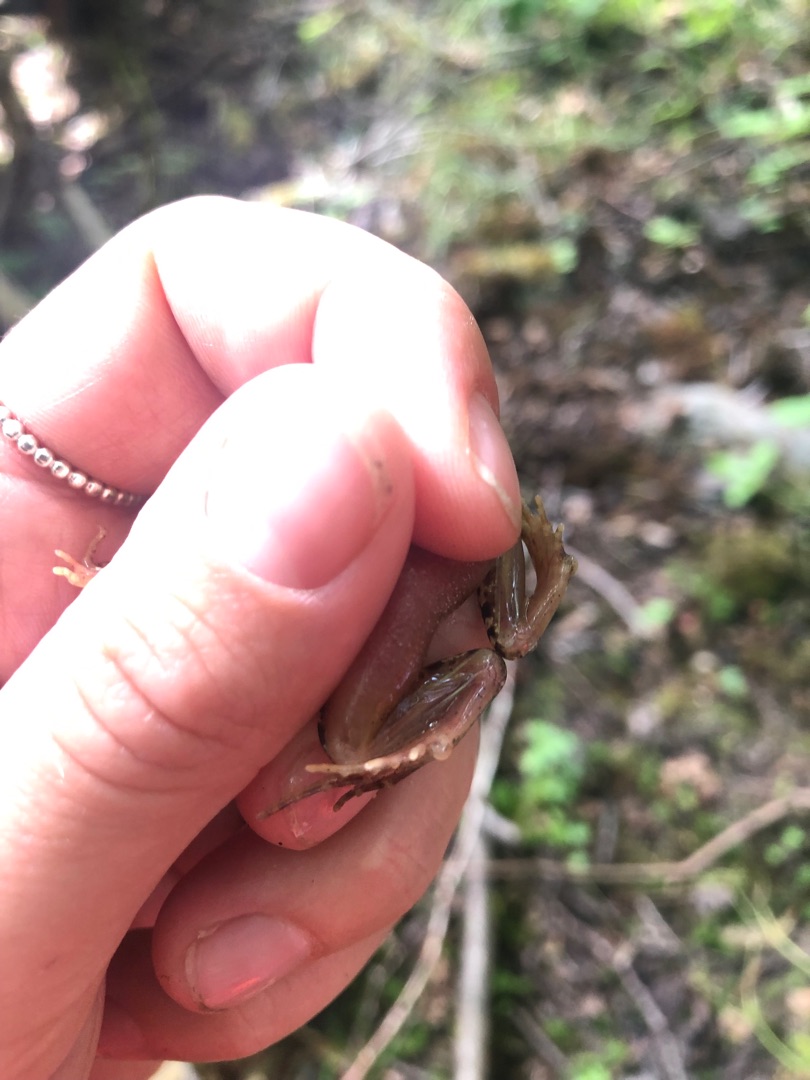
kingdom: Animalia
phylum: Chordata
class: Amphibia
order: Anura
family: Ranidae
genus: Rana
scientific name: Rana arvalis
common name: Spidssnudet frø
